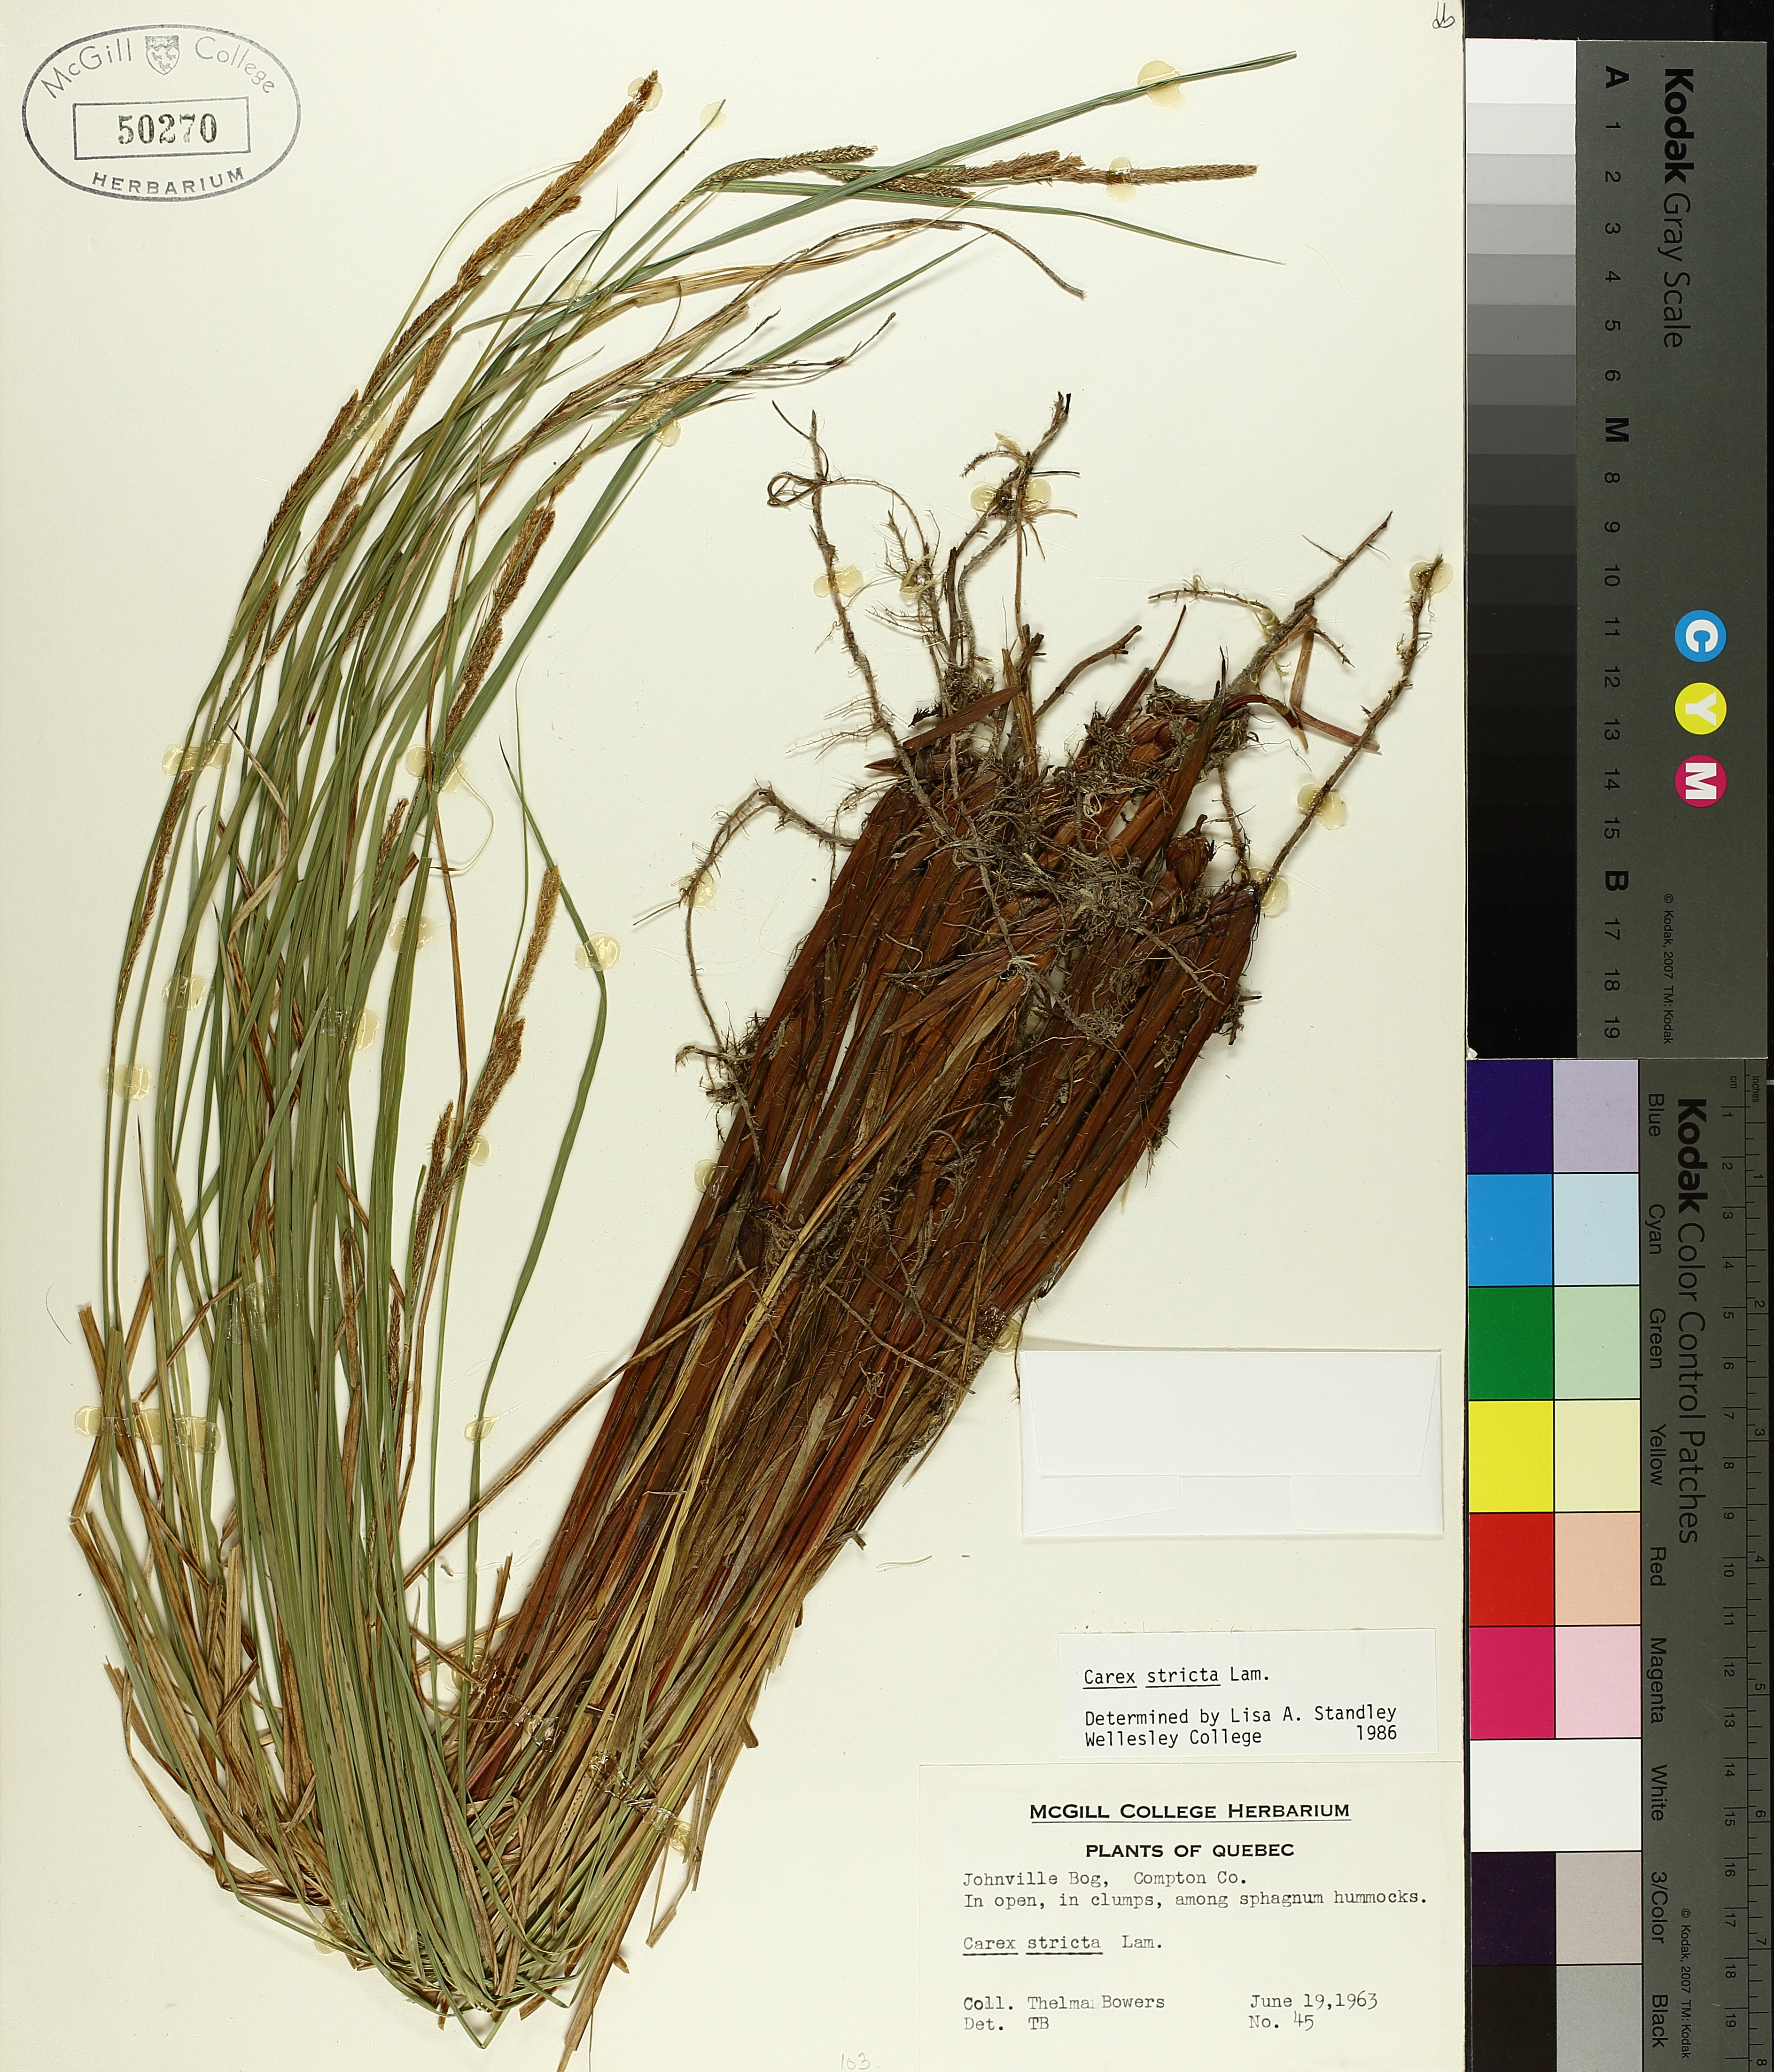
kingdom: Plantae
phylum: Tracheophyta
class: Liliopsida
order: Poales
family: Cyperaceae
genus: Carex
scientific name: Carex stricta
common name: Hummock sedge
